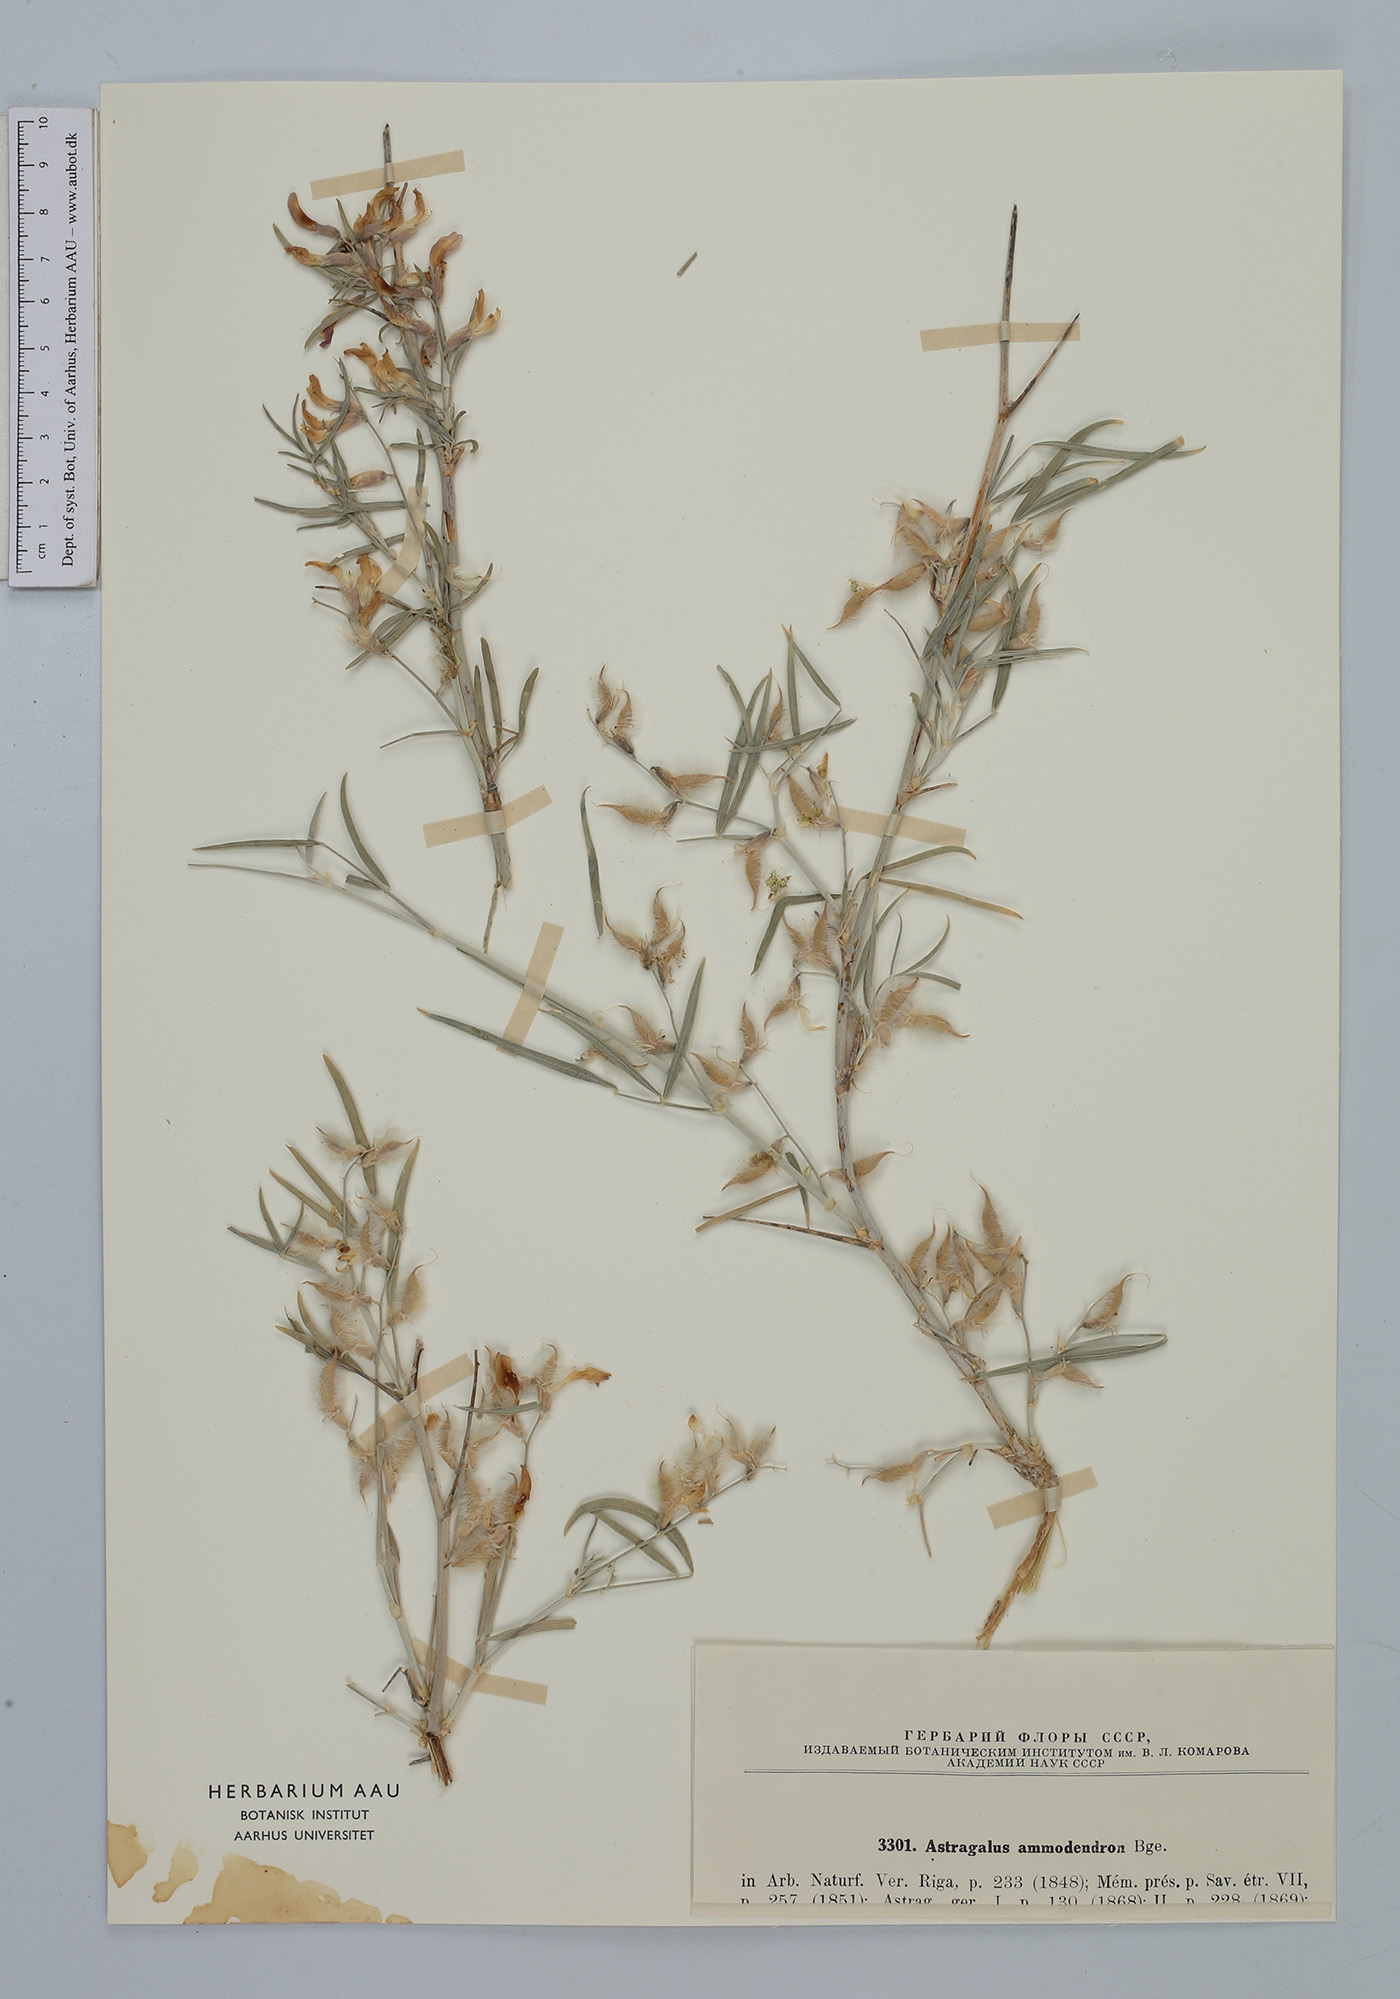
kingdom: Plantae
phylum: Tracheophyta
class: Magnoliopsida
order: Fabales
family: Fabaceae
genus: Astragalus
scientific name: Astragalus ammodendron
